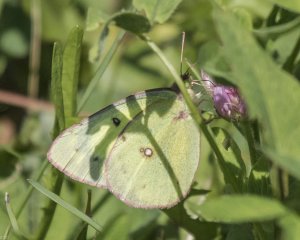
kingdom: Animalia
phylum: Arthropoda
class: Insecta
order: Lepidoptera
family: Pieridae
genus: Colias
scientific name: Colias philodice
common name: Clouded Sulphur
